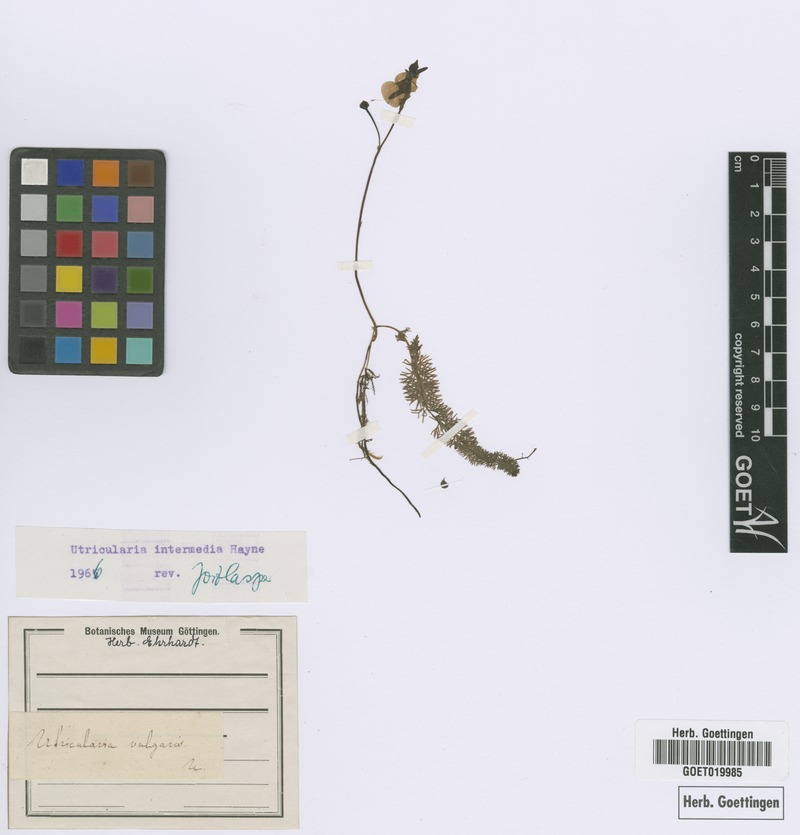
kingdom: Plantae
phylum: Tracheophyta
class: Magnoliopsida
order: Lamiales
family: Lentibulariaceae
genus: Utricularia
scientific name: Utricularia intermedia
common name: Intermediate bladderwort
